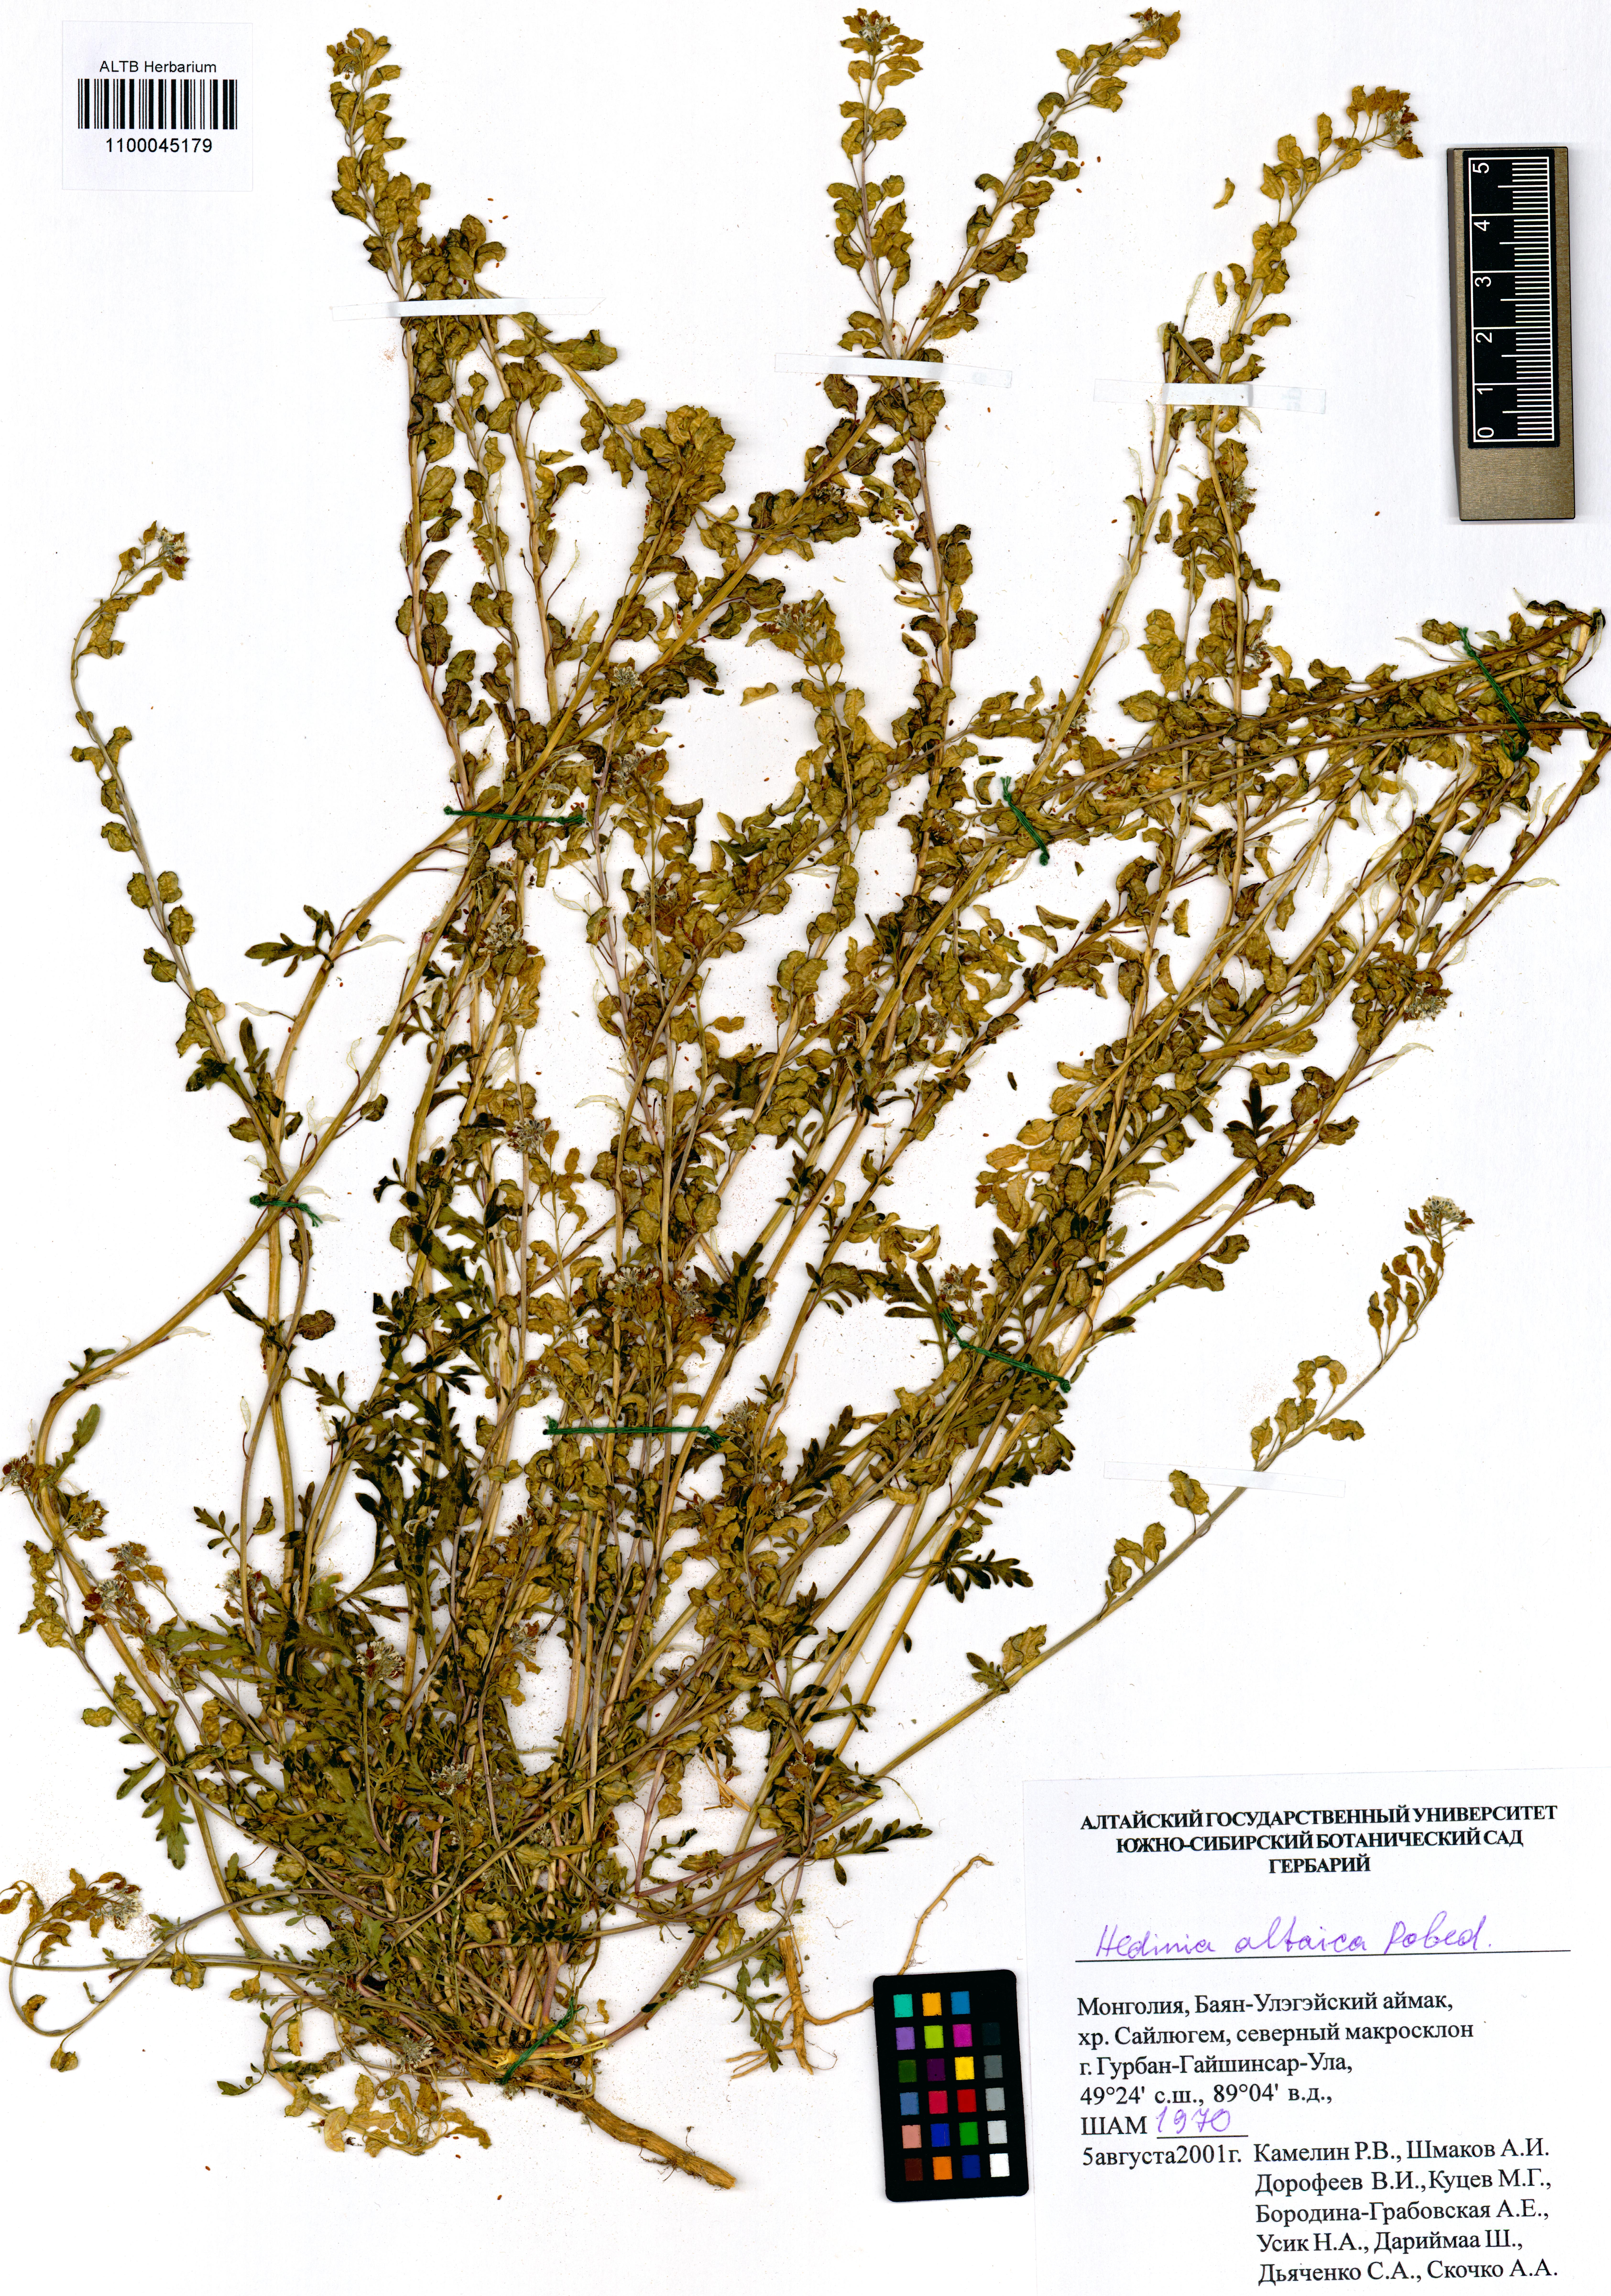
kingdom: Plantae
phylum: Tracheophyta
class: Magnoliopsida
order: Brassicales
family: Brassicaceae
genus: Smelowskia
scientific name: Smelowskia altaica
